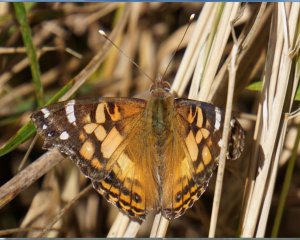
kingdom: Animalia
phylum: Arthropoda
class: Insecta
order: Lepidoptera
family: Nymphalidae
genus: Vanessa
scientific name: Vanessa virginiensis
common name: American Lady
